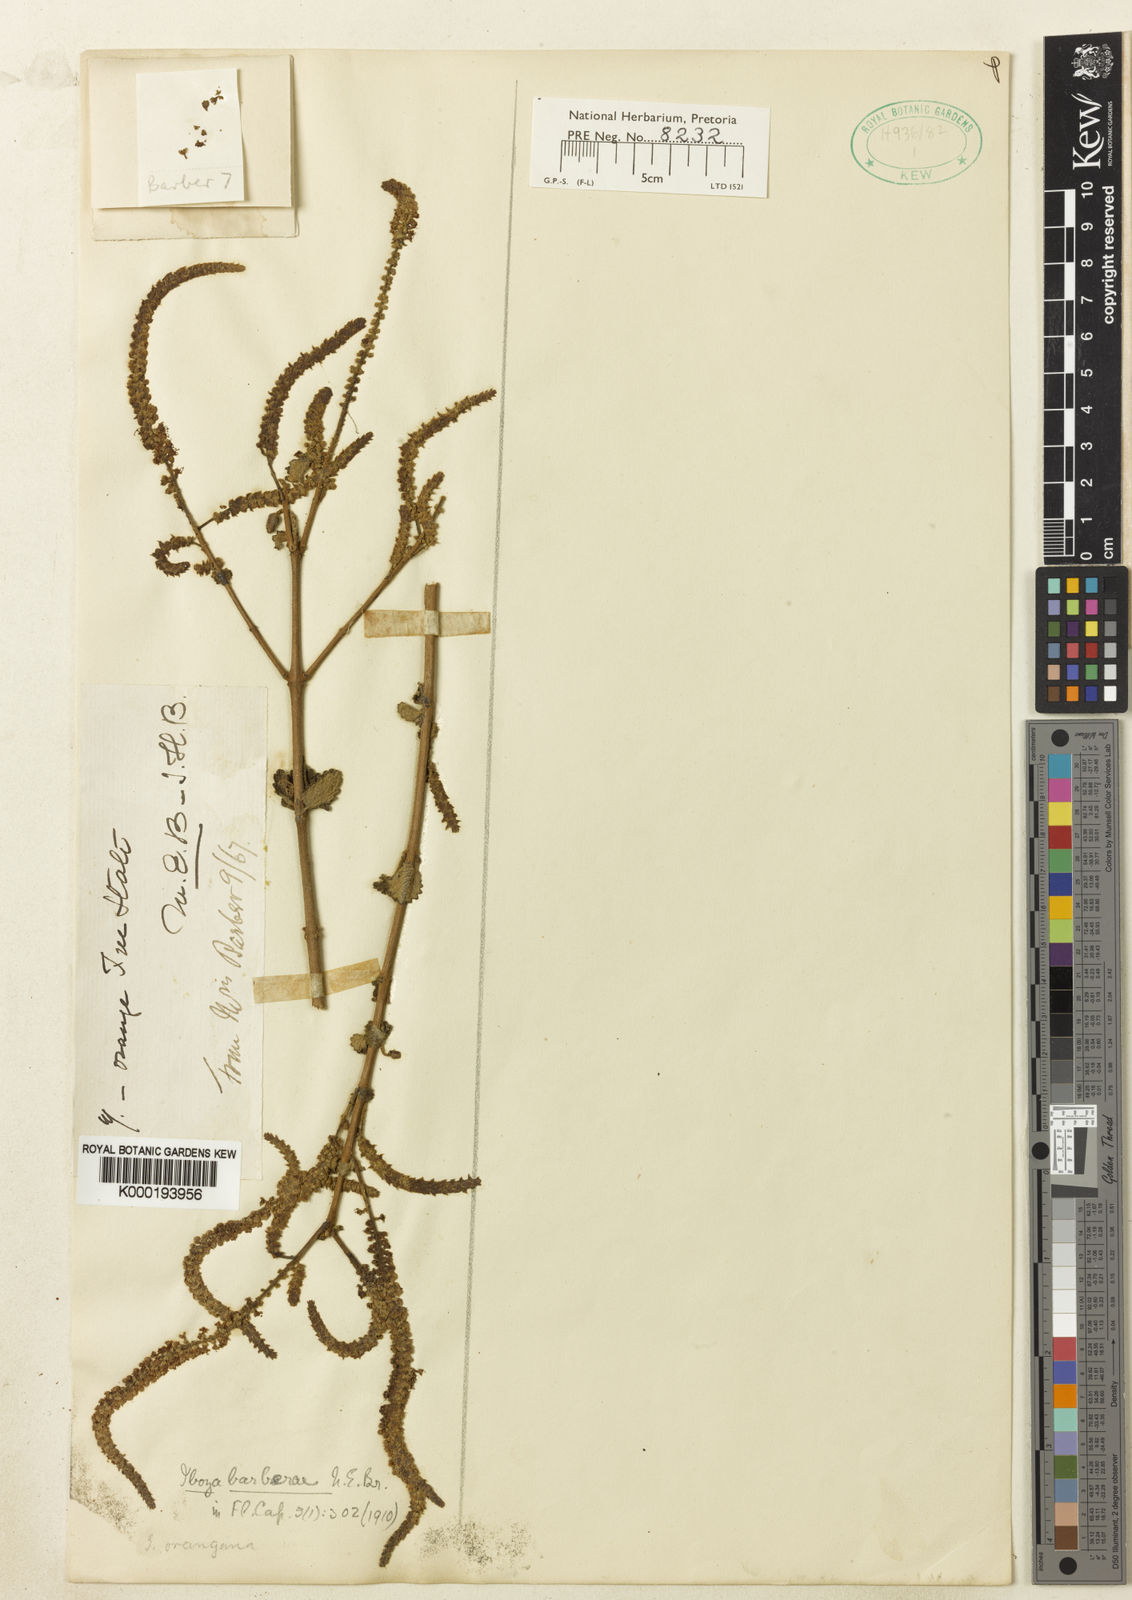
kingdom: Plantae
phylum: Tracheophyta
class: Magnoliopsida
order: Lamiales
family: Lamiaceae
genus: Tetradenia
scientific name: Tetradenia barberae
